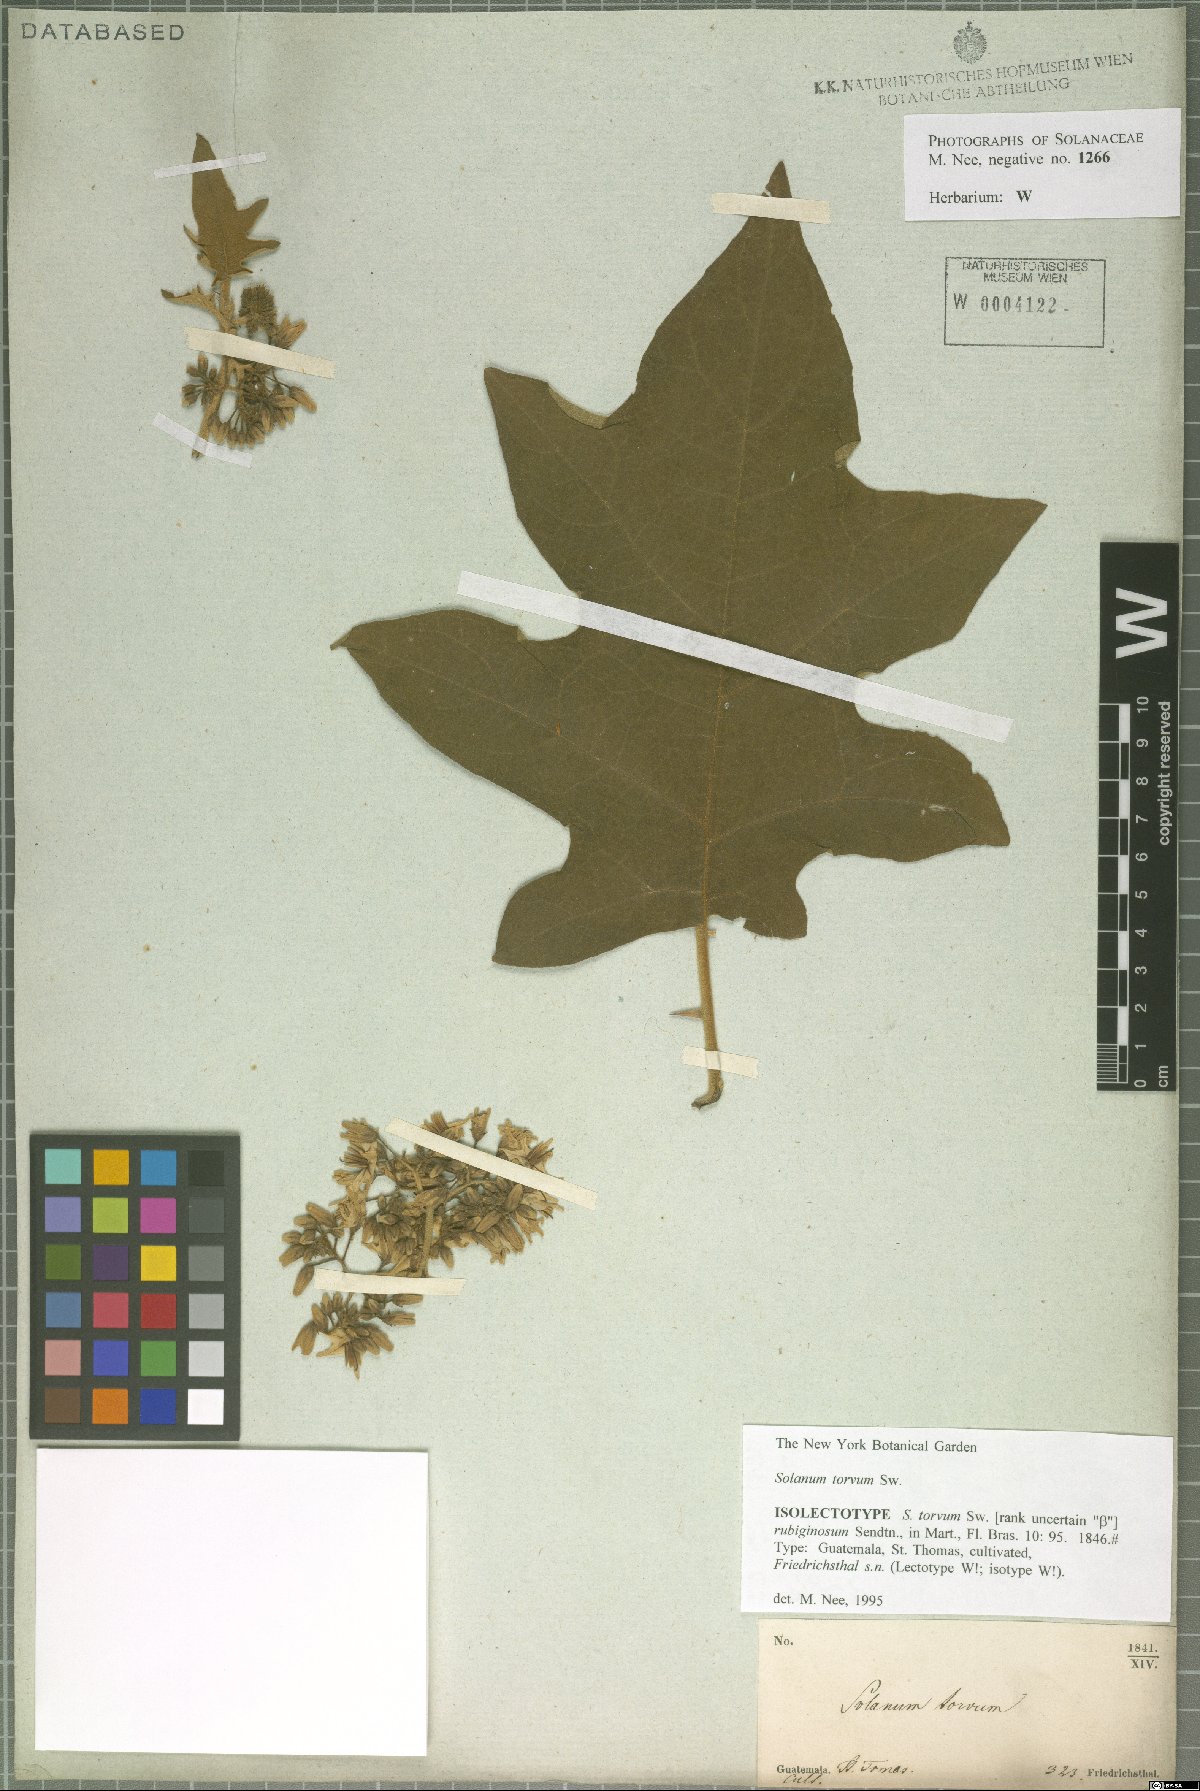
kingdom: Plantae
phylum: Tracheophyta
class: Magnoliopsida
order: Solanales
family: Solanaceae
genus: Solanum
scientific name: Solanum torvum
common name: Turkey berry
